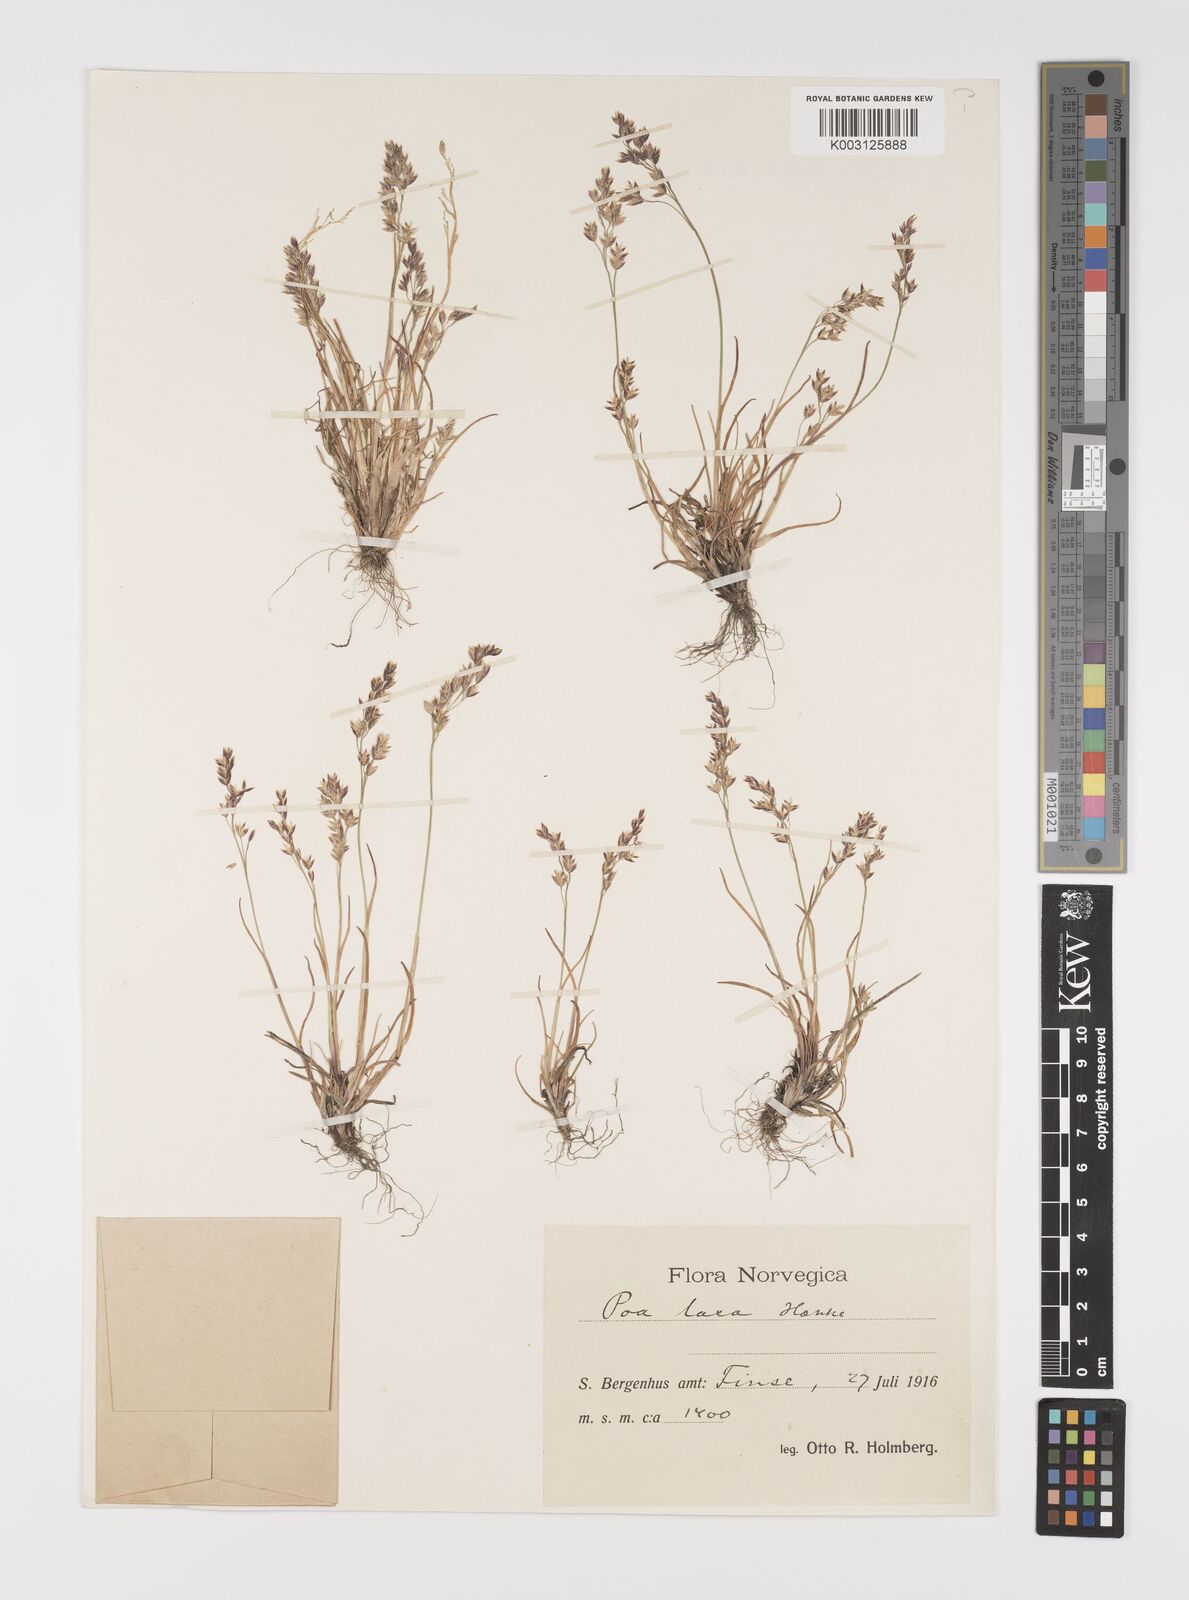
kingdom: Plantae
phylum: Tracheophyta
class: Liliopsida
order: Poales
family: Poaceae
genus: Eragrostis
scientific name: Eragrostis cilianensis
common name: Stinkgrass
